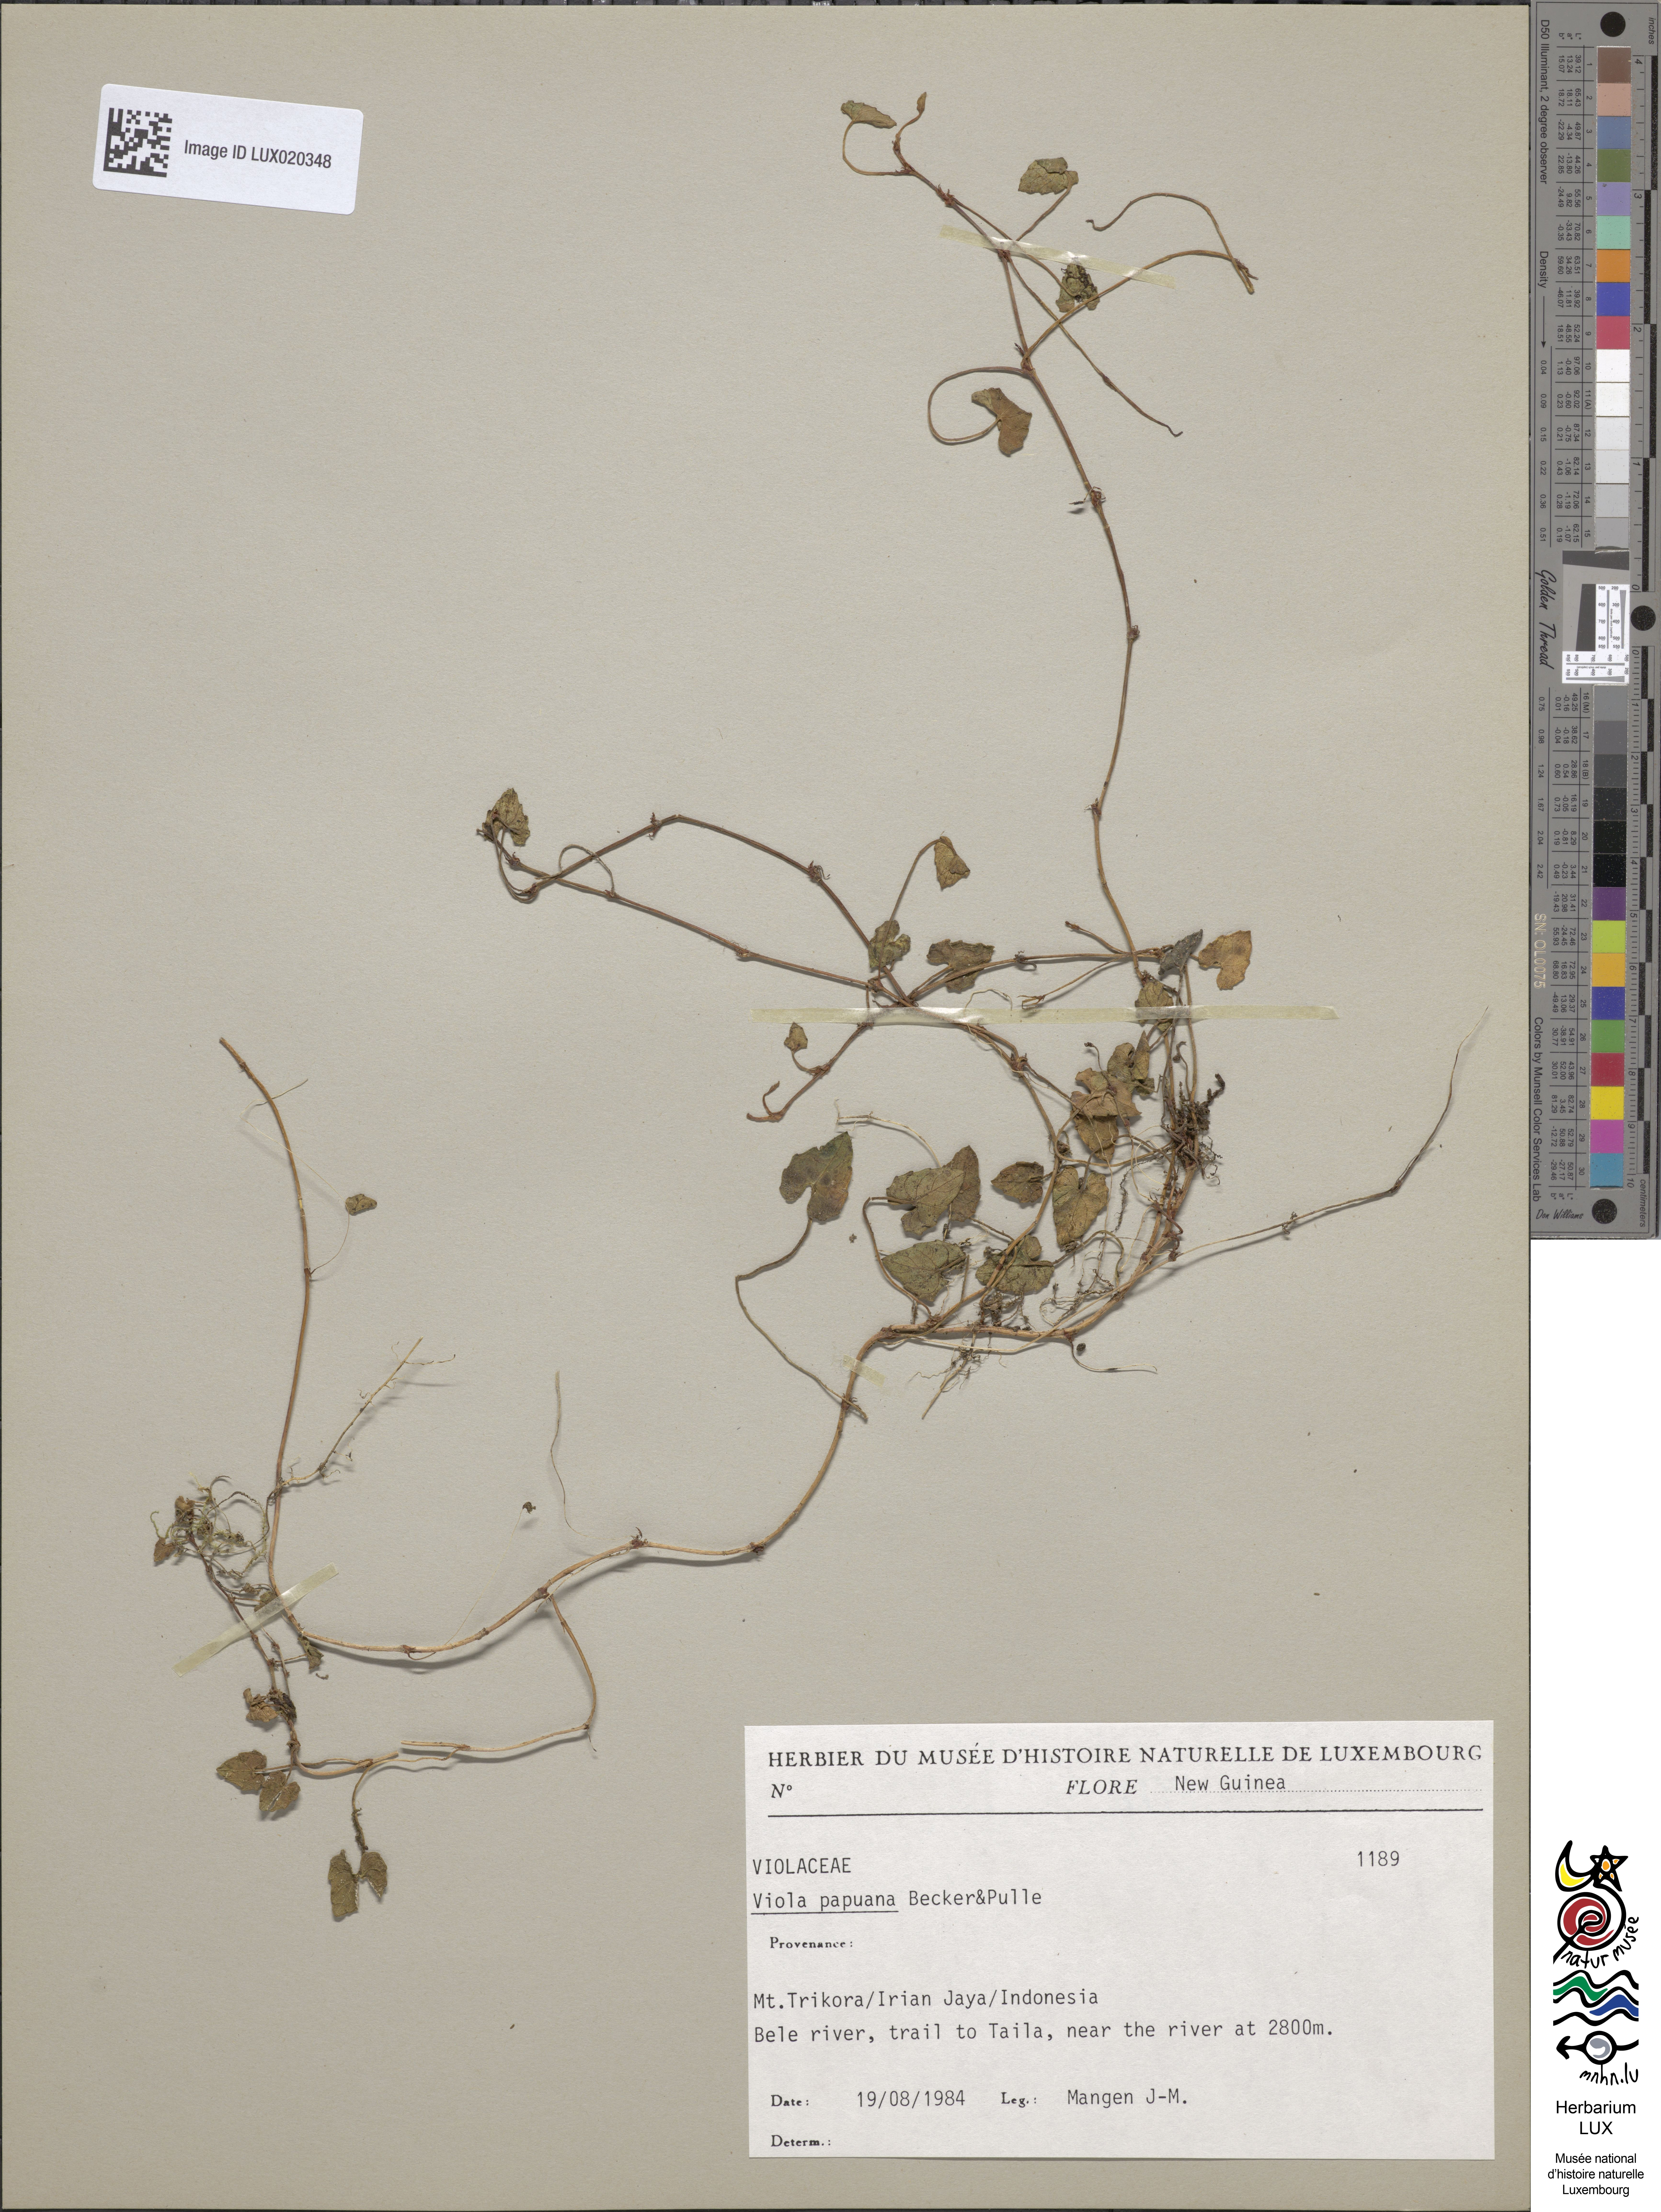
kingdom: Plantae
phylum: Tracheophyta
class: Magnoliopsida
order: Malpighiales
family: Violaceae
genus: Viola
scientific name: Viola papuana
